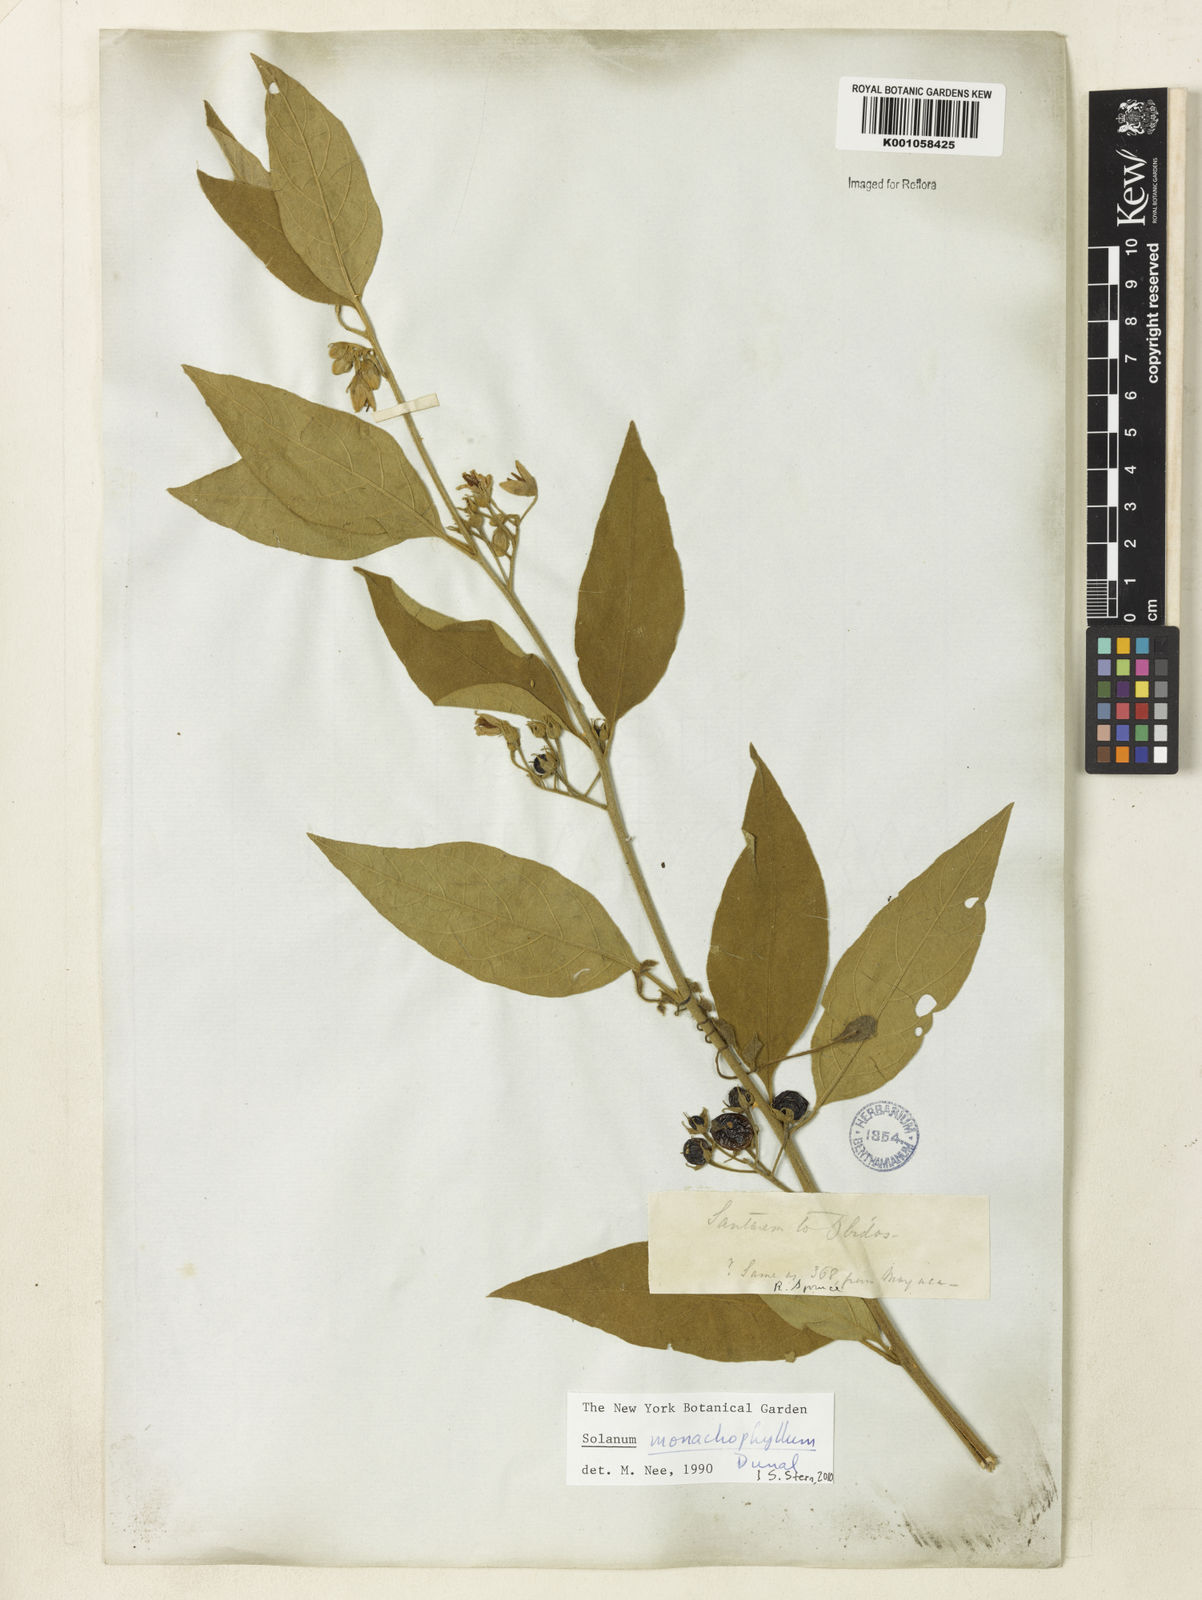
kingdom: Plantae
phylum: Tracheophyta
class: Magnoliopsida
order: Solanales
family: Solanaceae
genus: Solanum
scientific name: Solanum monachophyllum
